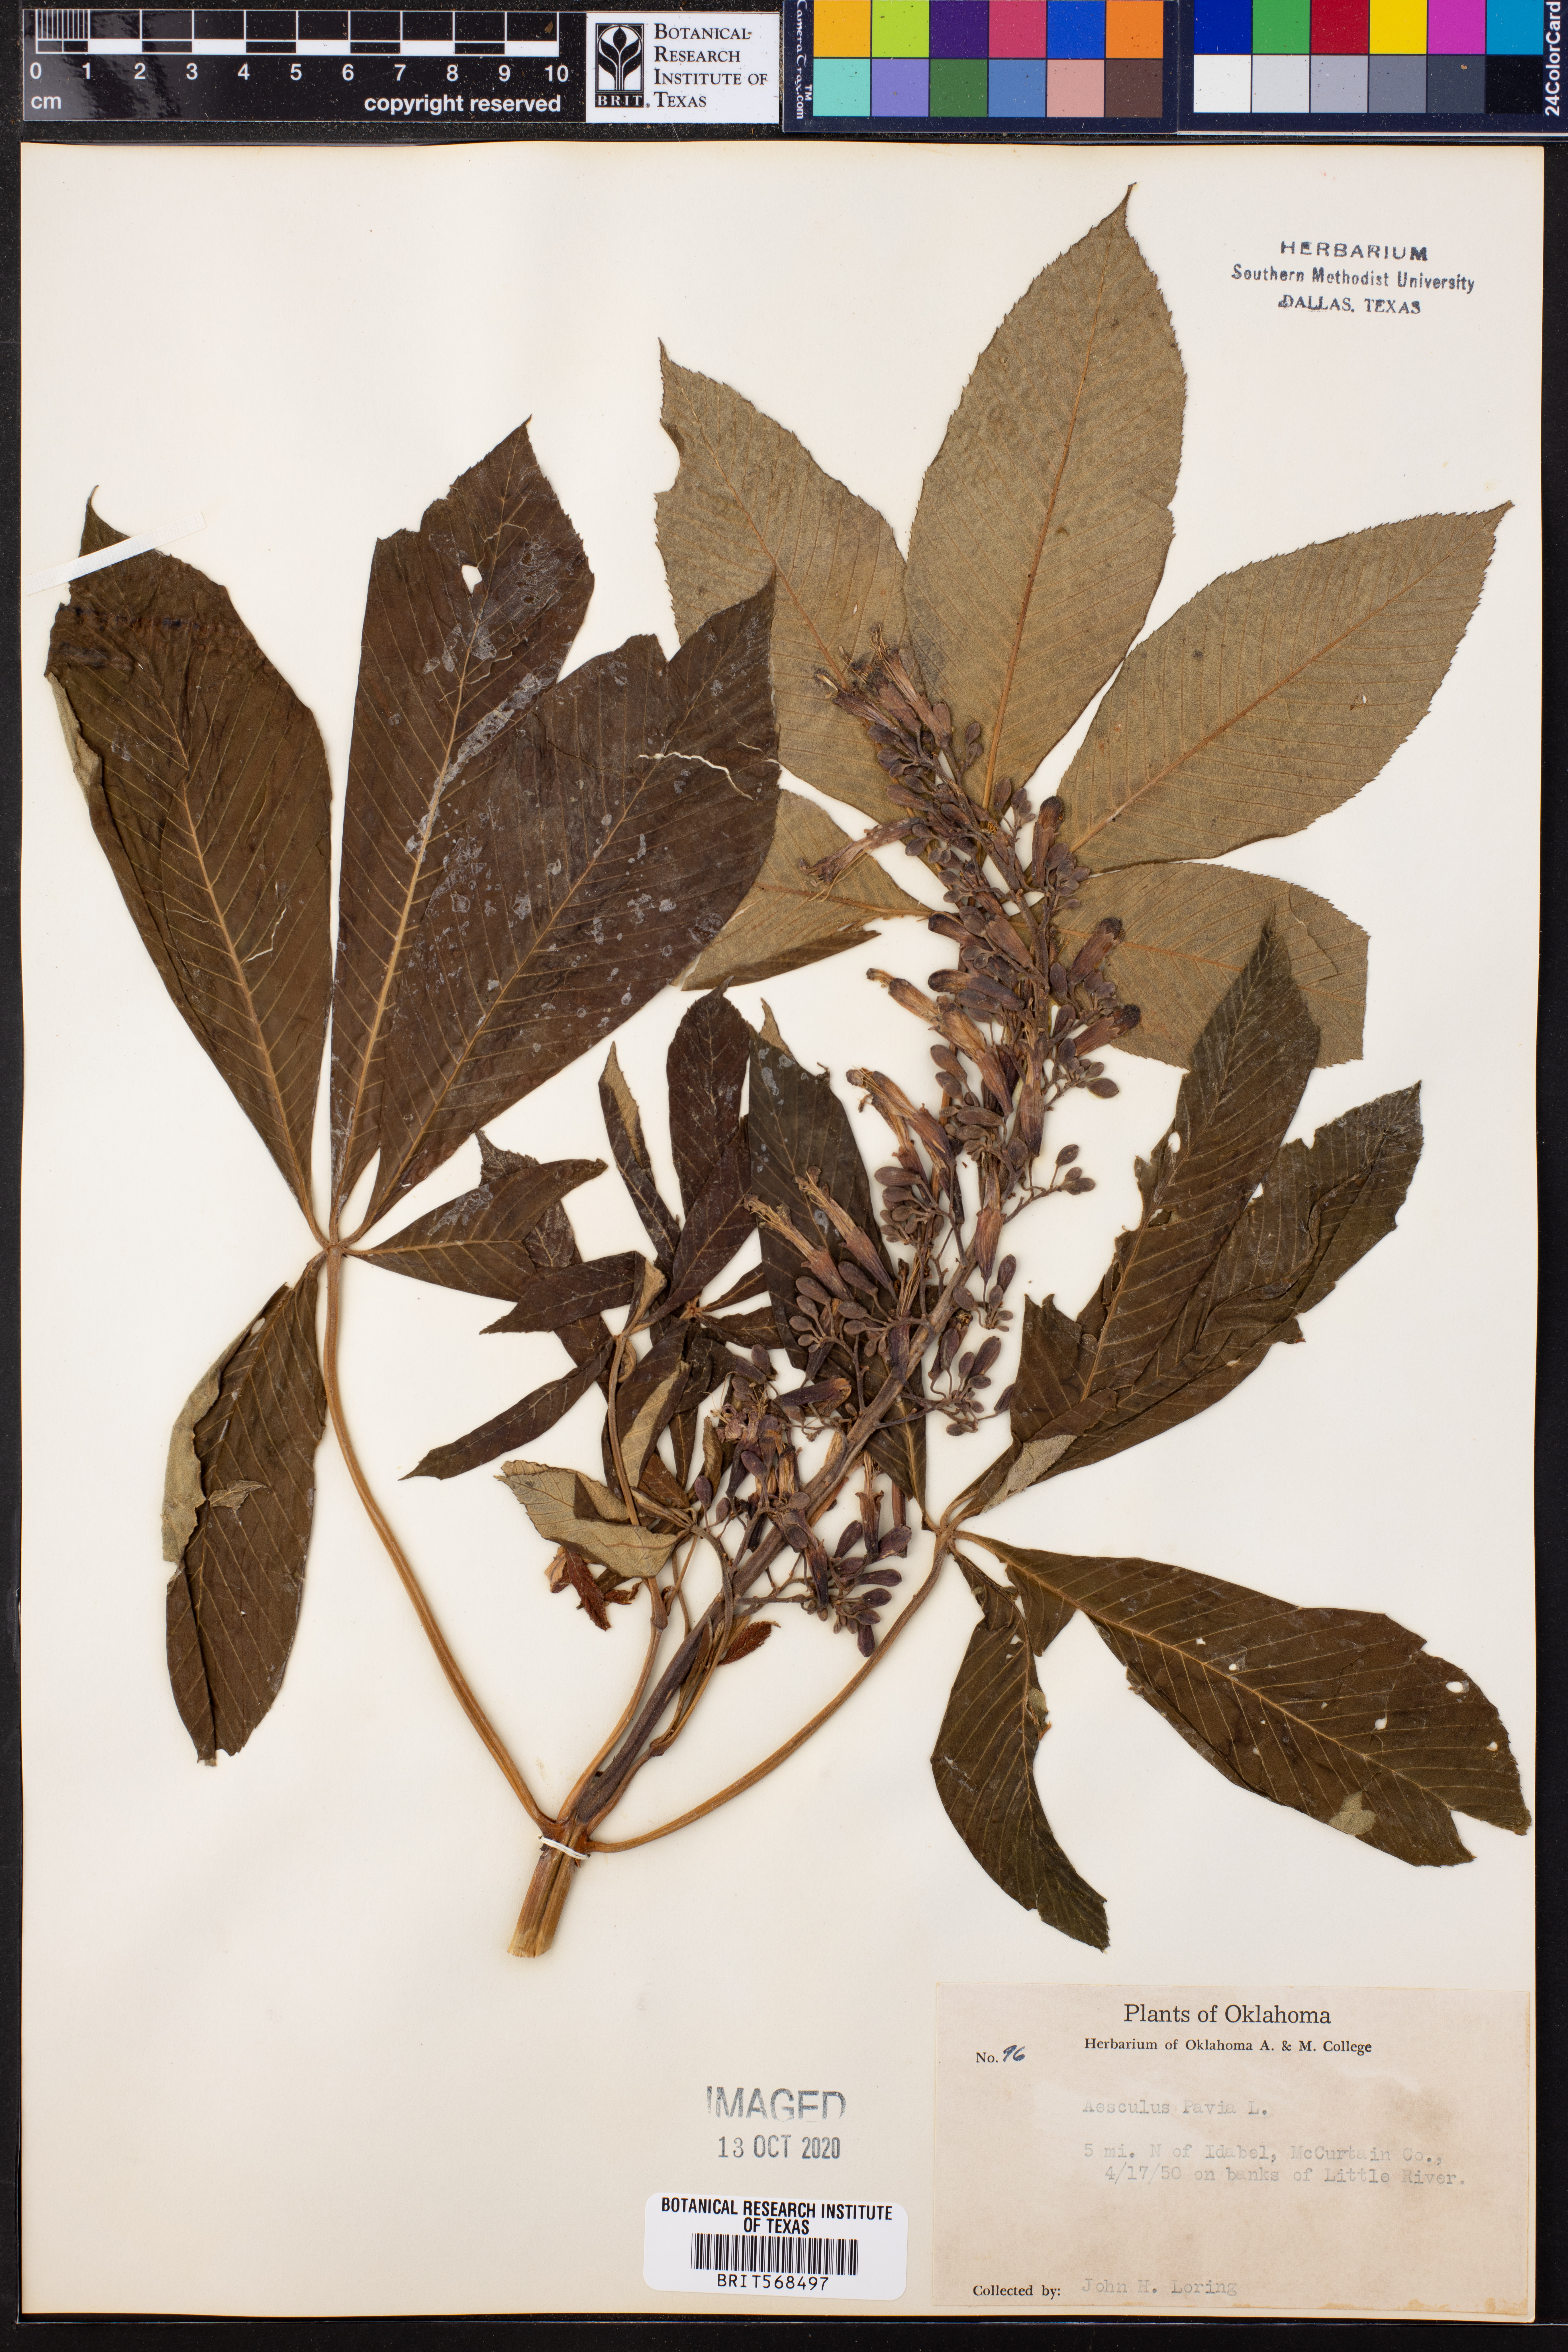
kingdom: Plantae
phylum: Tracheophyta
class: Magnoliopsida
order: Sapindales
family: Sapindaceae
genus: Aesculus
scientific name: Aesculus pavia
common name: Red buckeye
